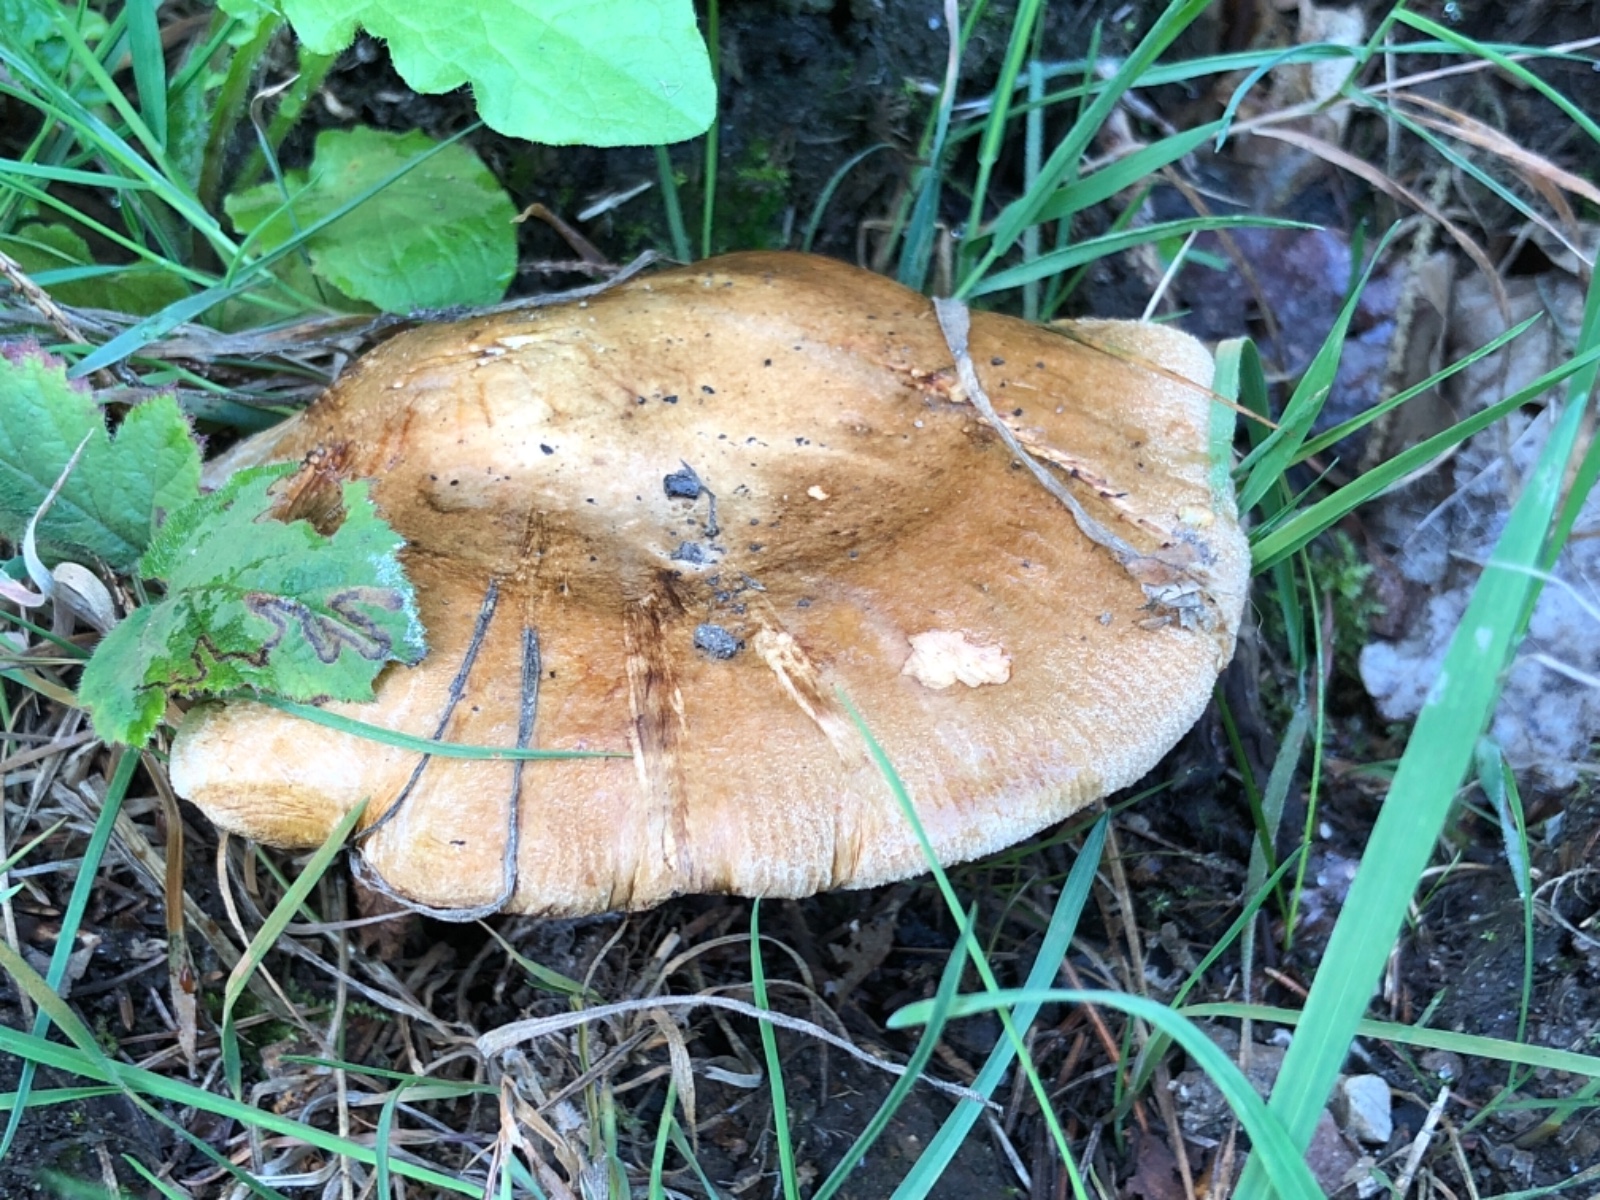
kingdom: Fungi
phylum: Basidiomycota
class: Agaricomycetes
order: Boletales
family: Paxillaceae
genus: Paxillus
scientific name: Paxillus involutus
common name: almindelig netbladhat
